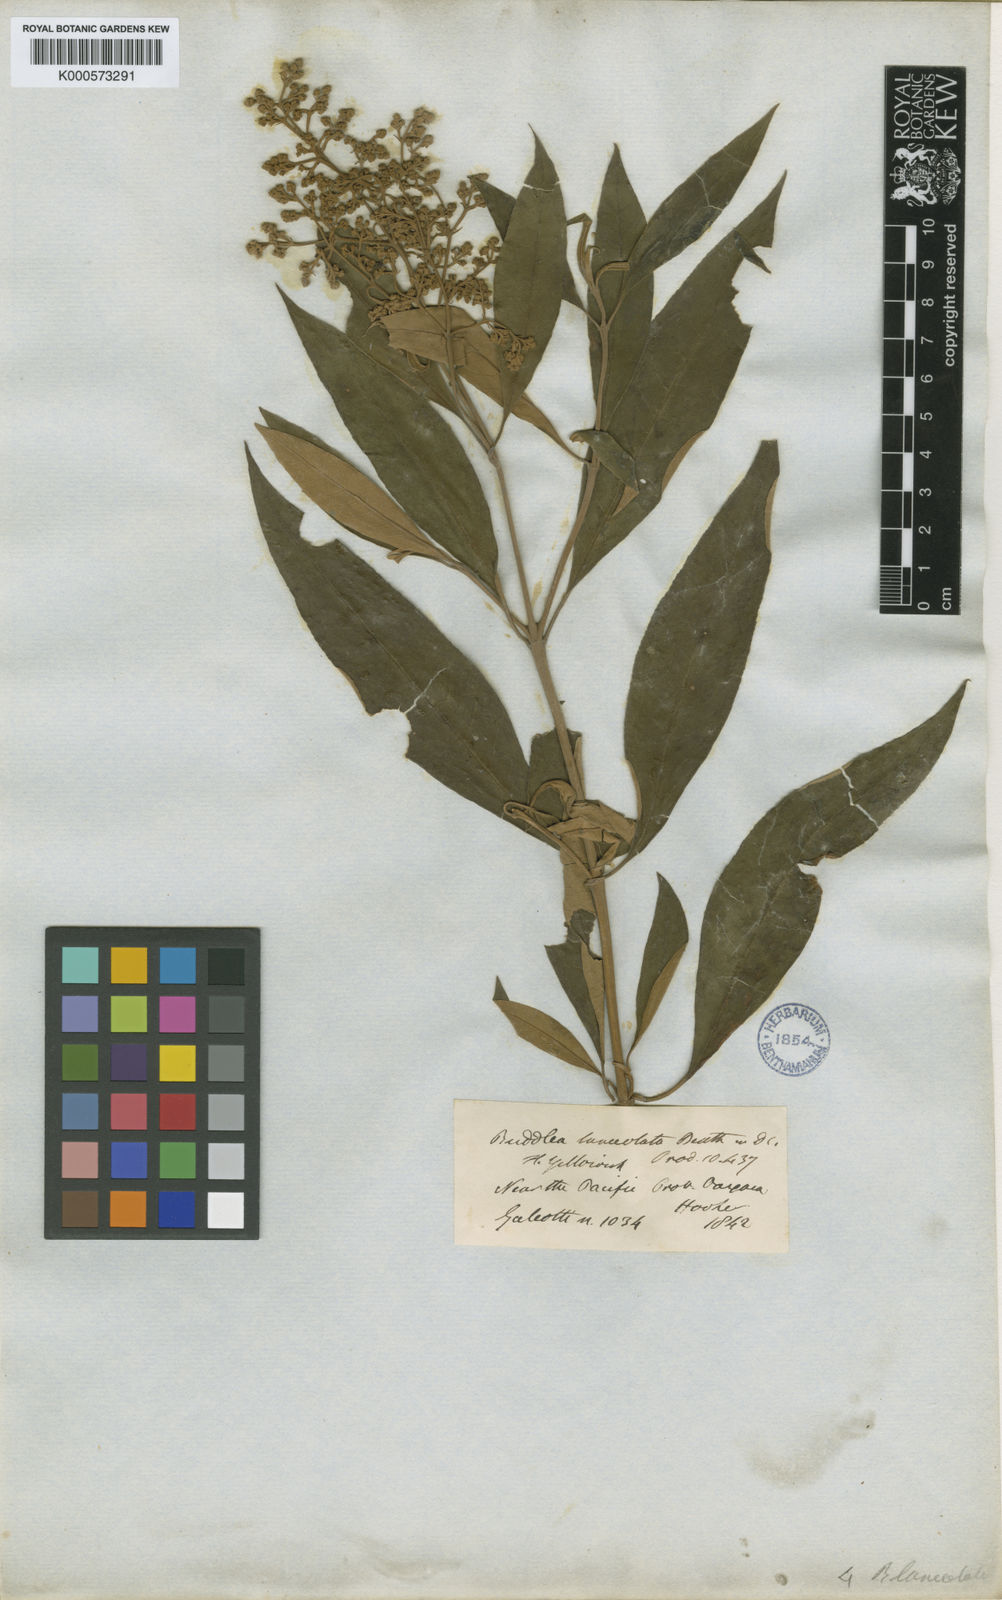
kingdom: Plantae
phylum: Tracheophyta
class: Magnoliopsida
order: Lamiales
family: Scrophulariaceae
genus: Buddleja
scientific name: Buddleja parviflora
